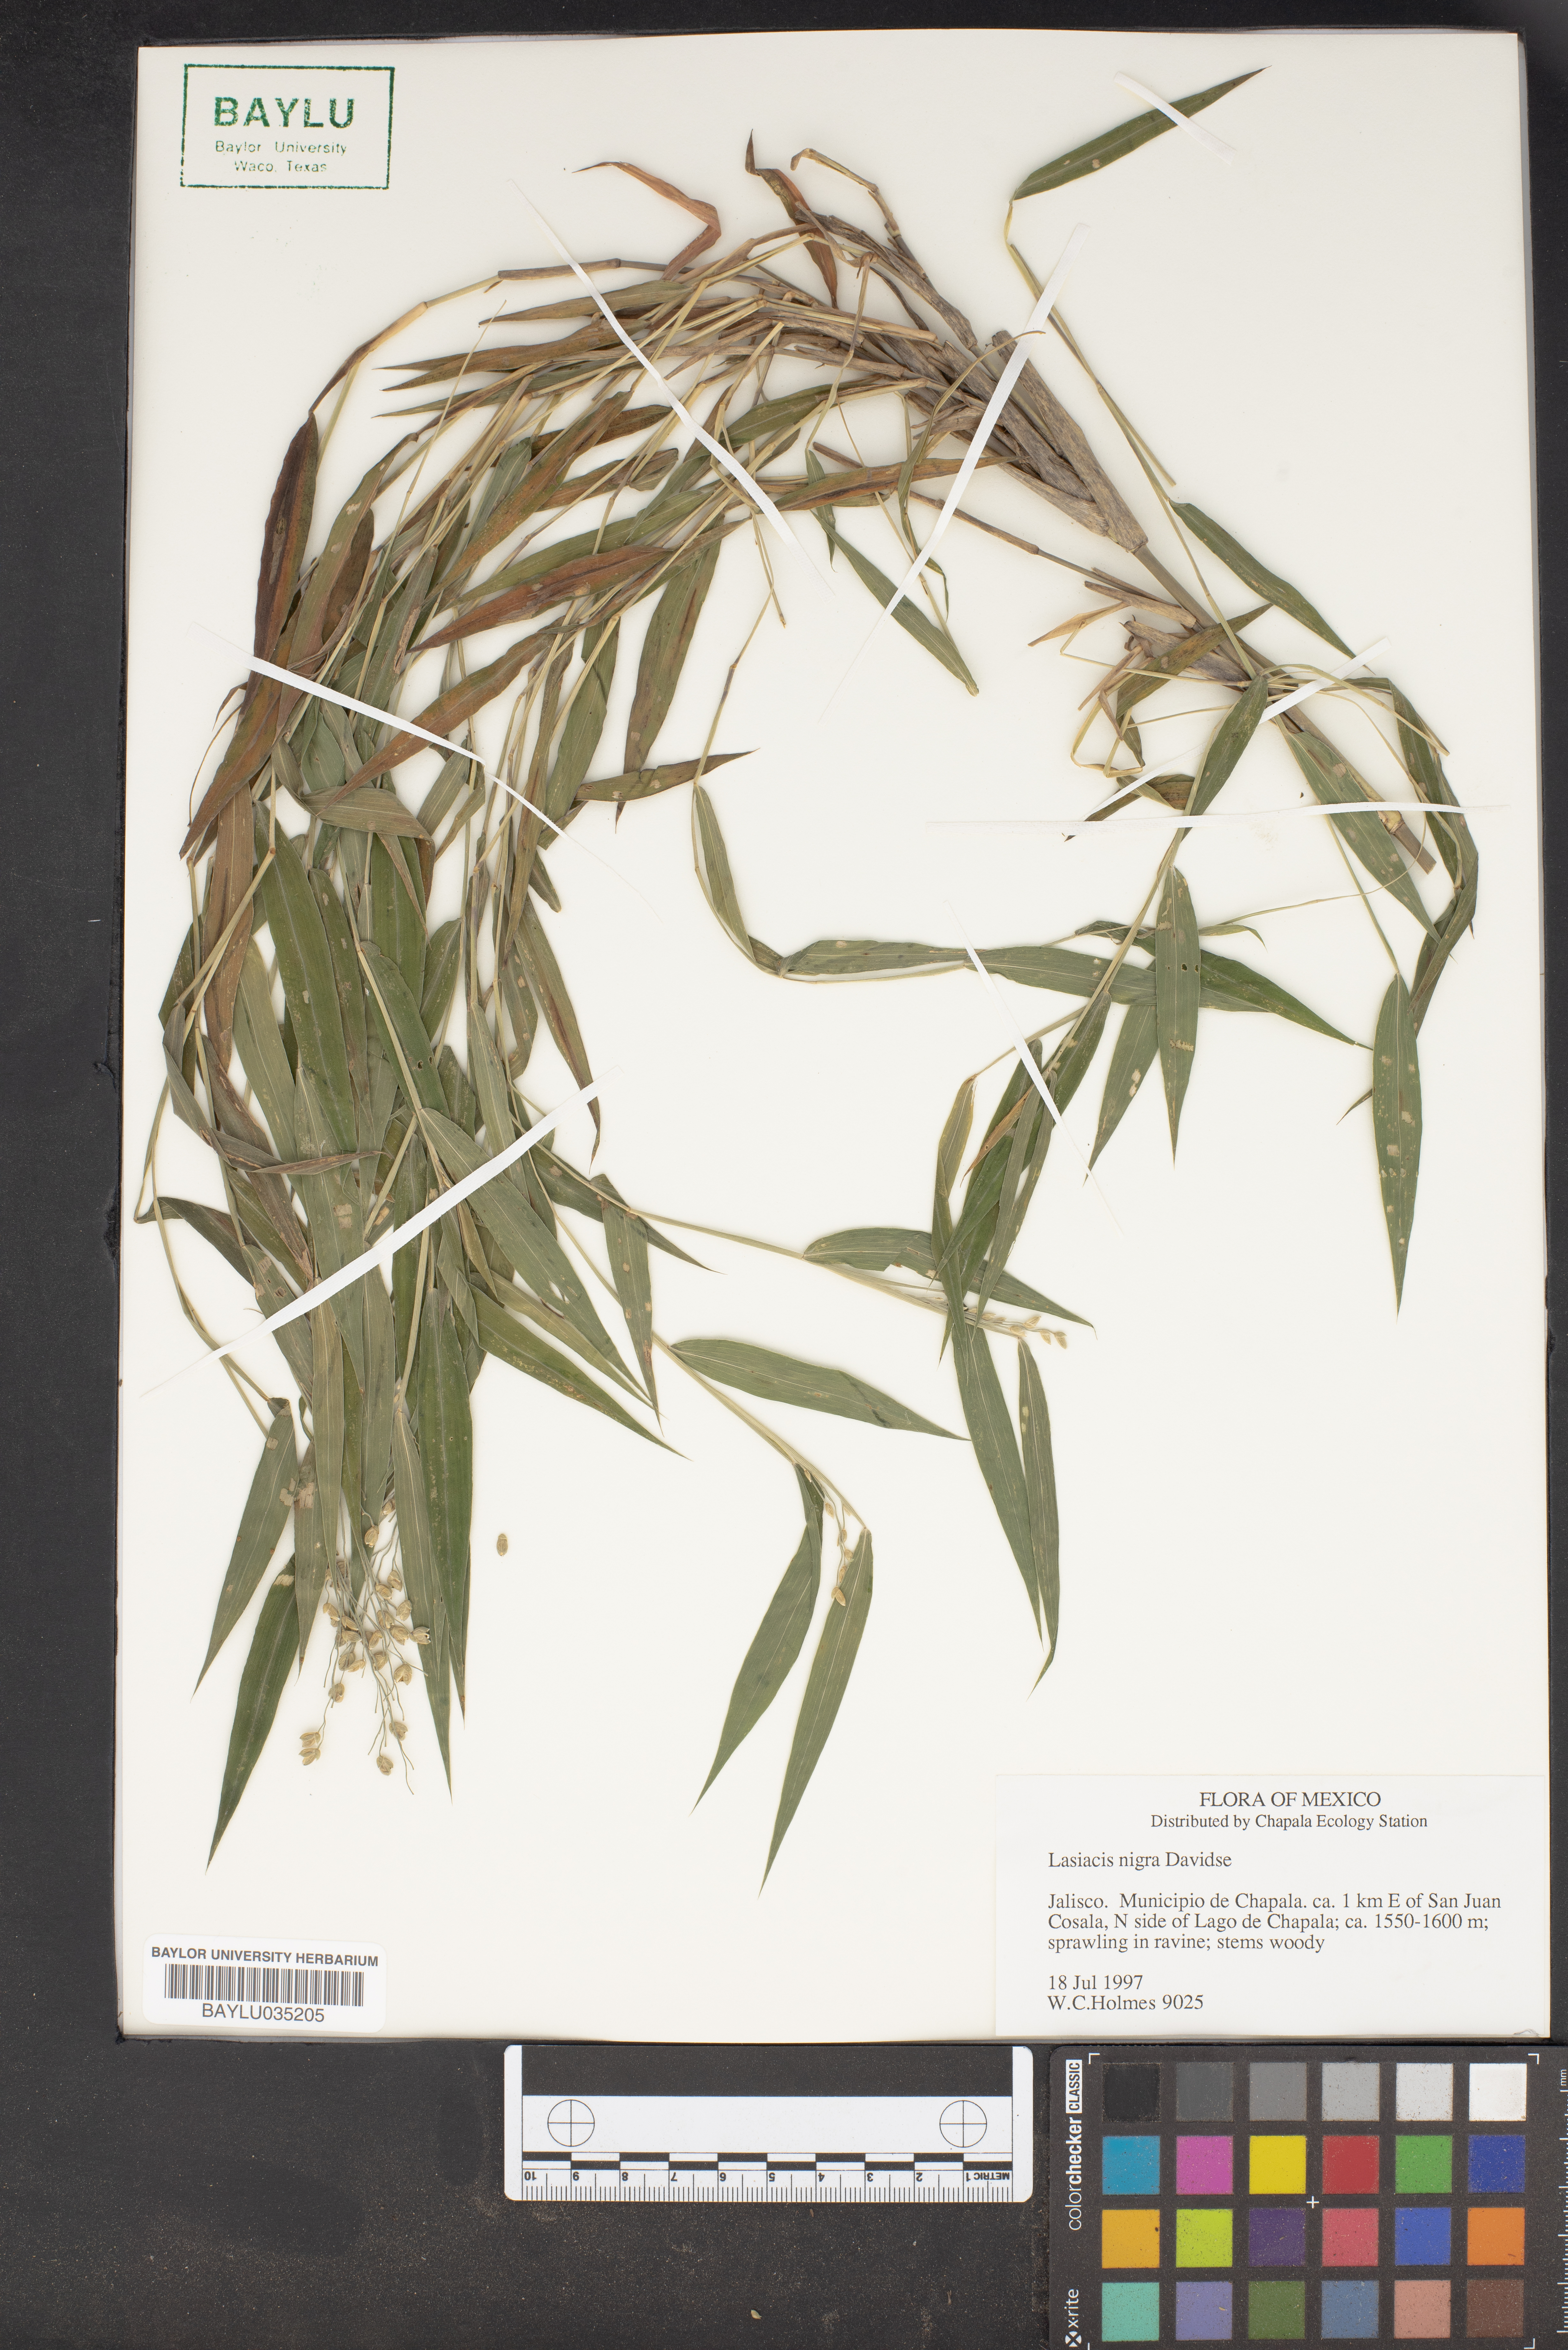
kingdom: Plantae
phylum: Tracheophyta
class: Liliopsida
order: Poales
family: Poaceae
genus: Lasiacis
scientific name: Lasiacis nigra
